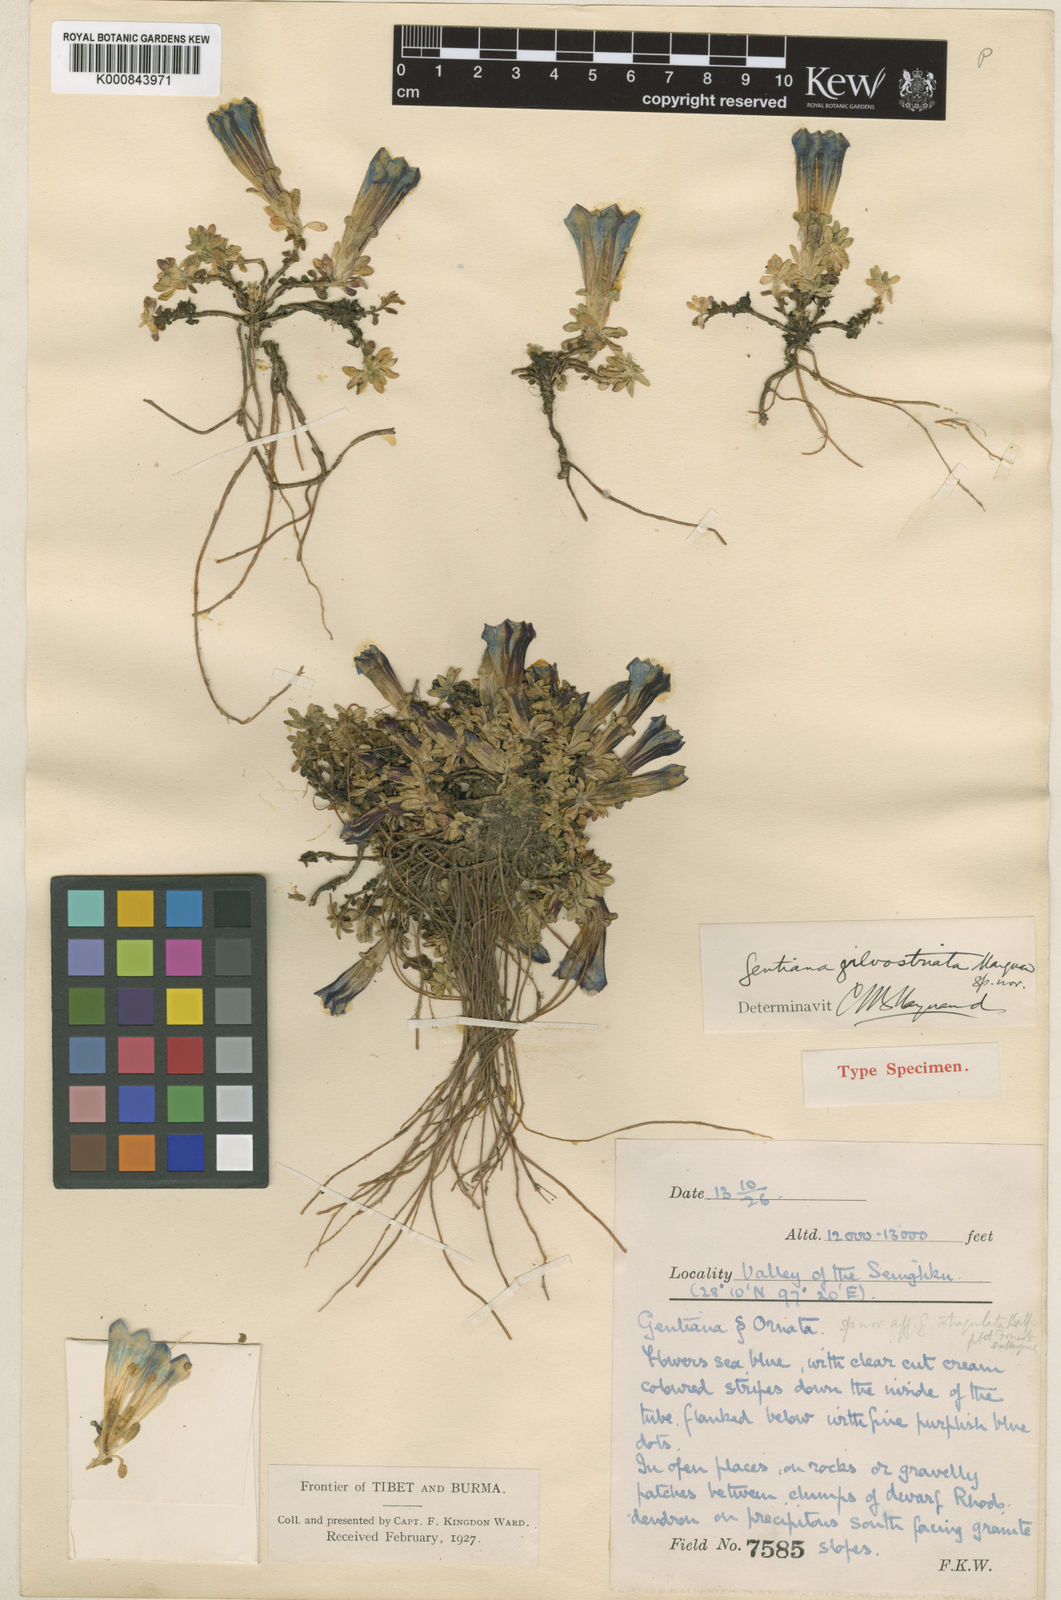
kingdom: Plantae
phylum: Tracheophyta
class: Magnoliopsida
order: Gentianales
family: Gentianaceae
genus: Gentiana
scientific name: Gentiana gilvostriata
